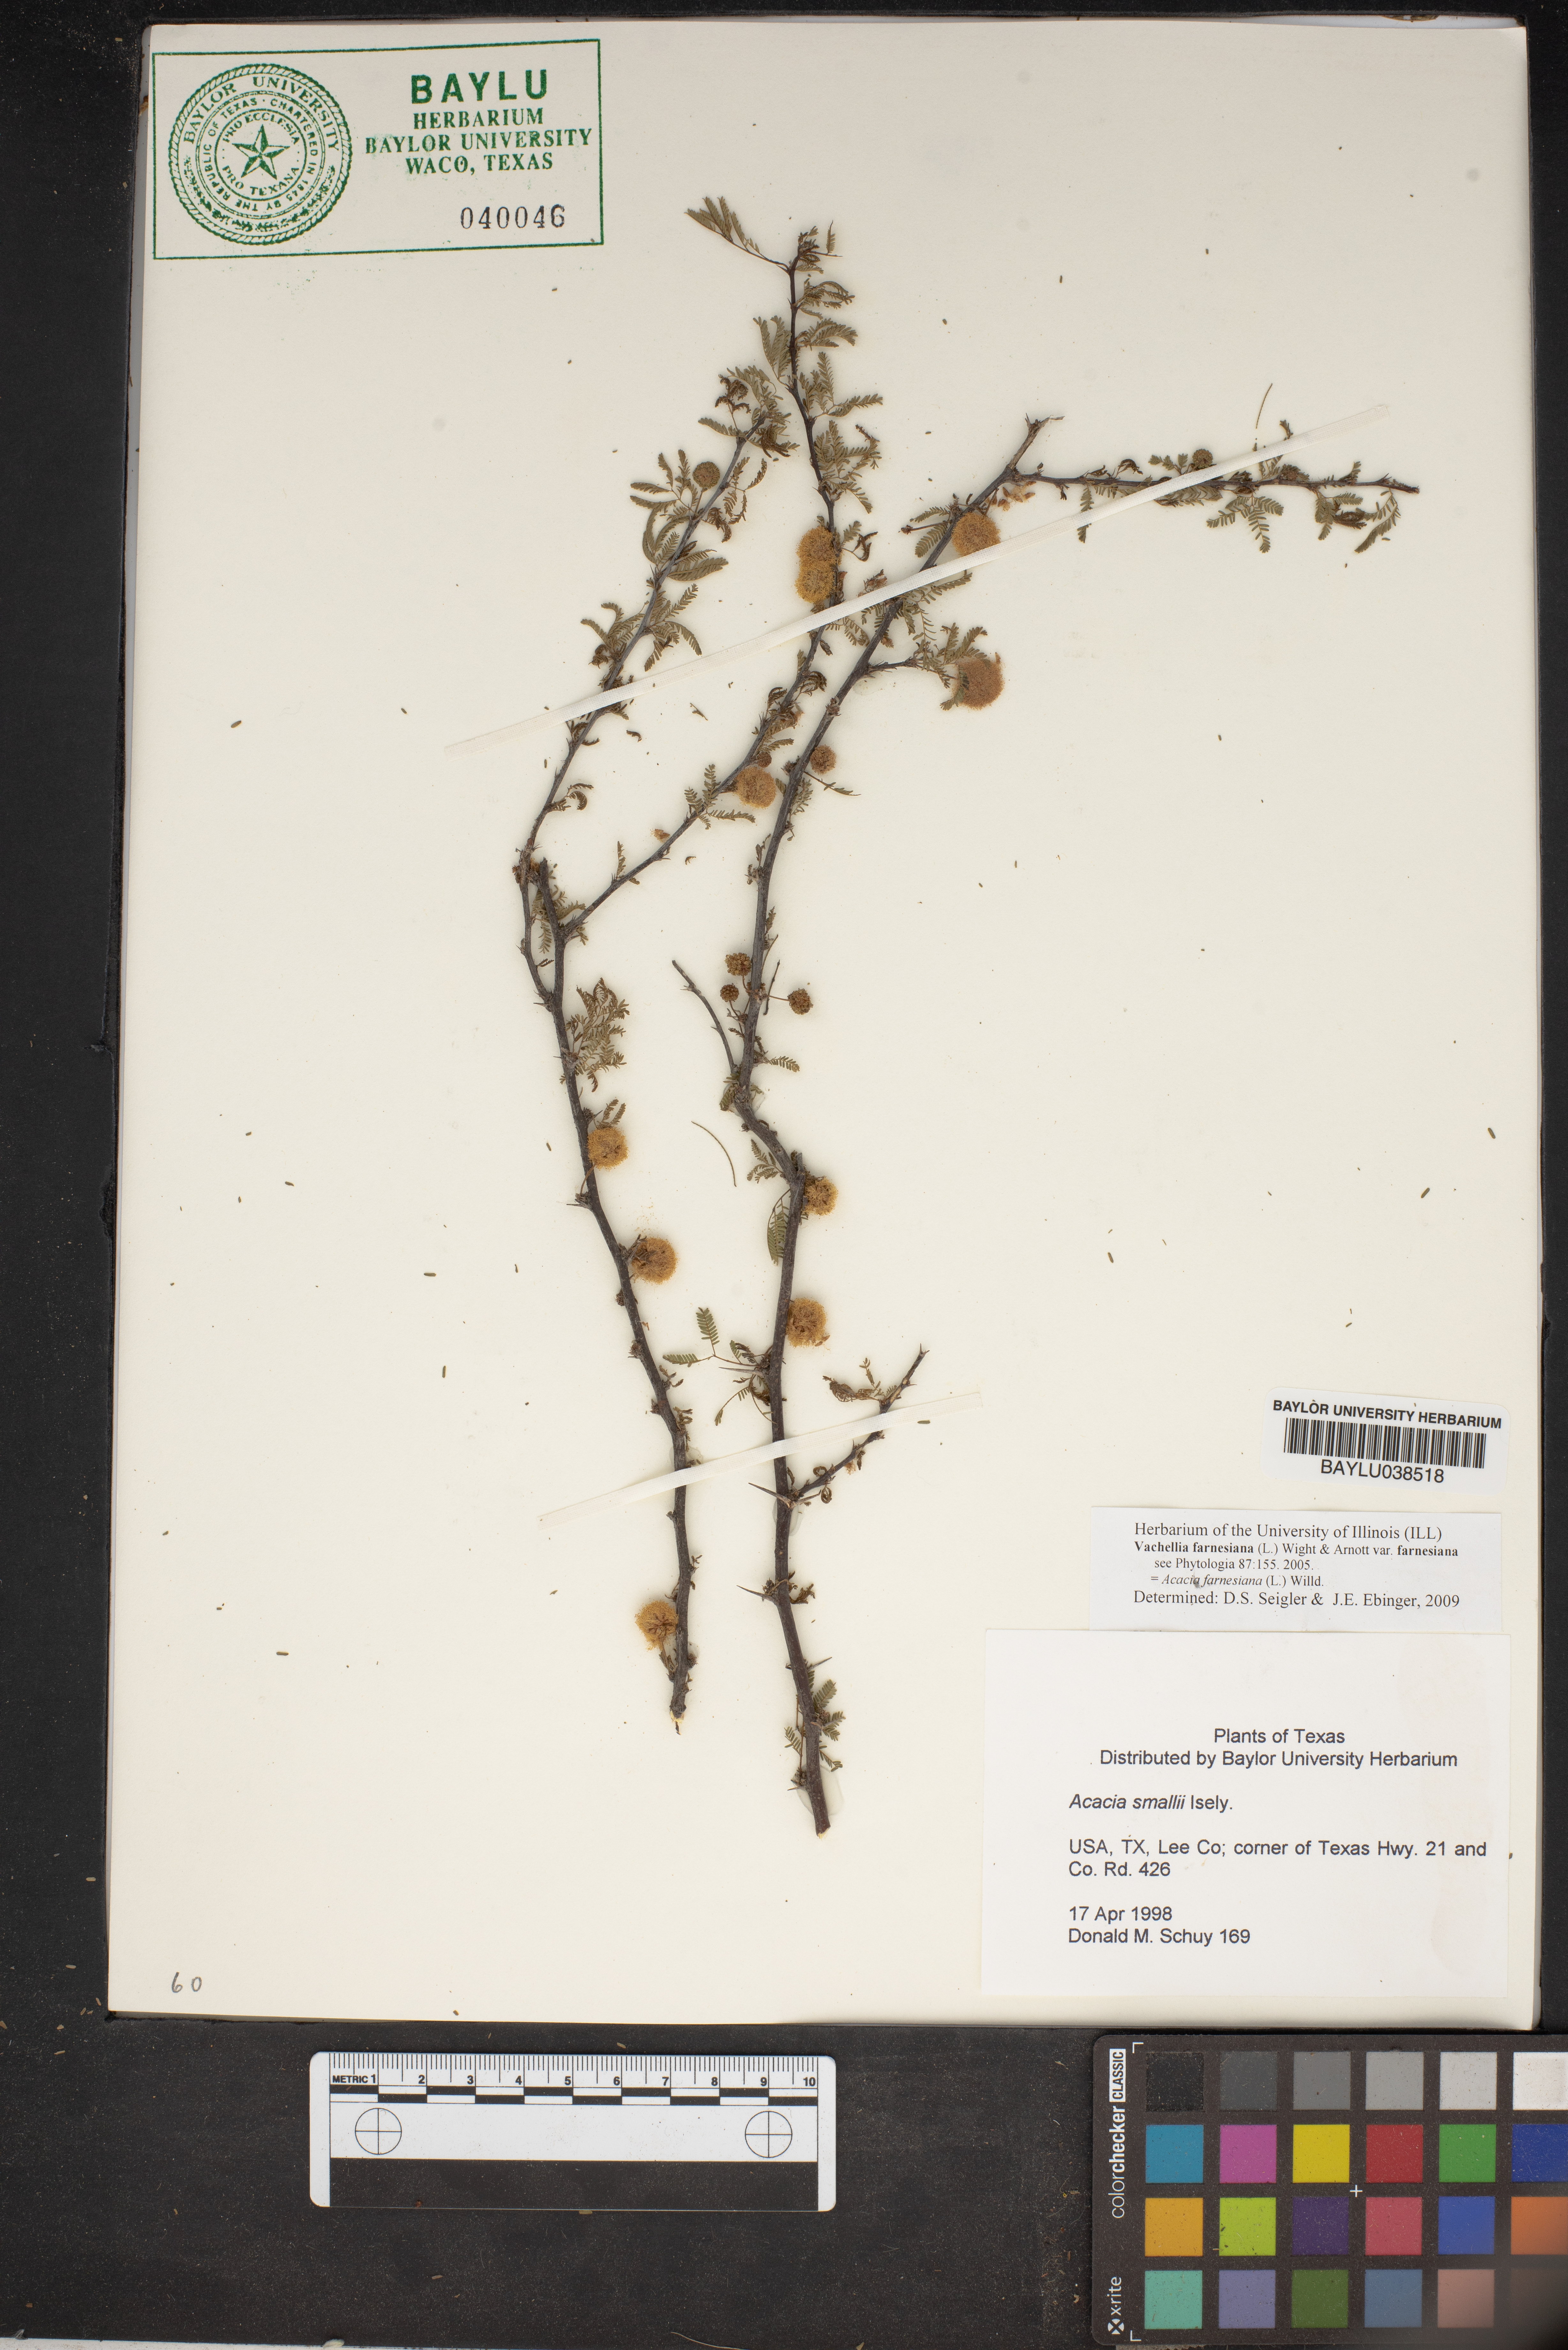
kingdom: Plantae
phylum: Tracheophyta
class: Magnoliopsida
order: Fabales
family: Fabaceae
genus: Vachellia
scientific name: Vachellia farnesiana
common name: Sweet acacia
